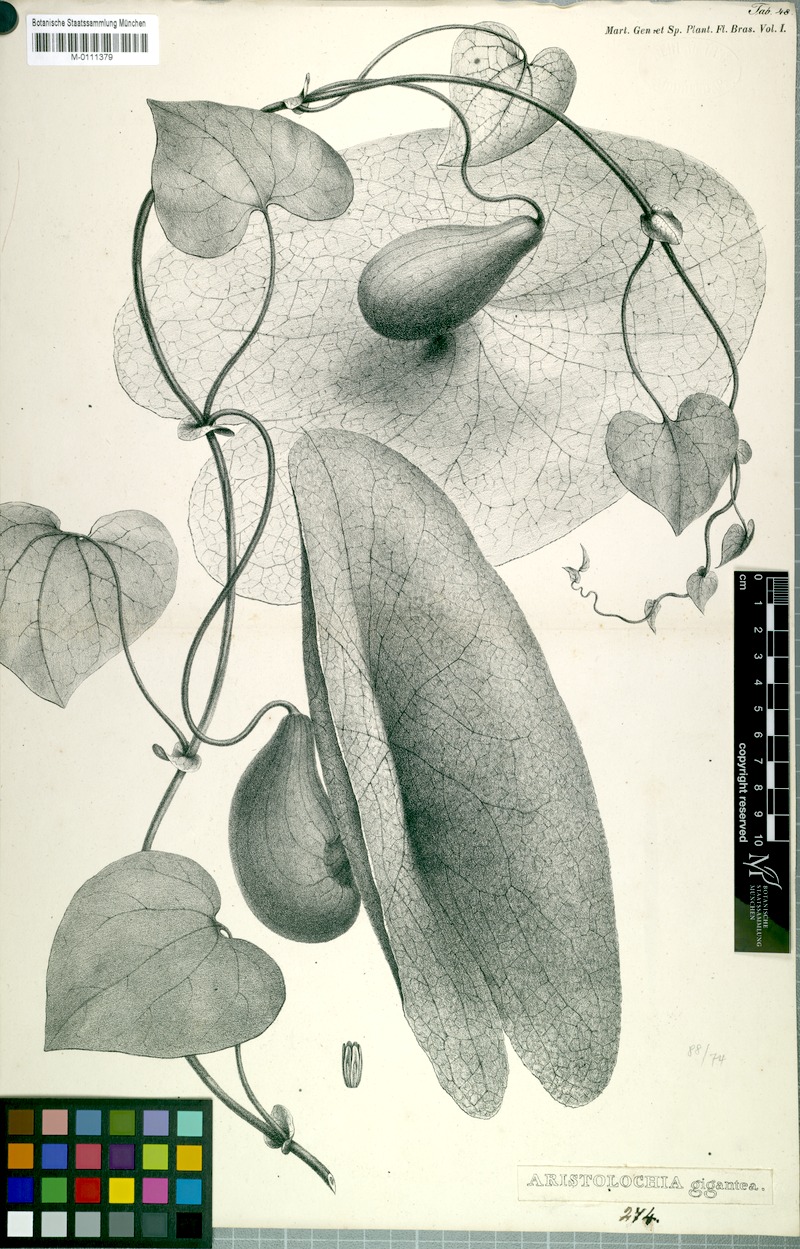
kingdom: Plantae
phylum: Tracheophyta
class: Magnoliopsida
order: Piperales
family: Aristolochiaceae
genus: Aristolochia
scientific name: Aristolochia gigantea
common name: Duckflower
